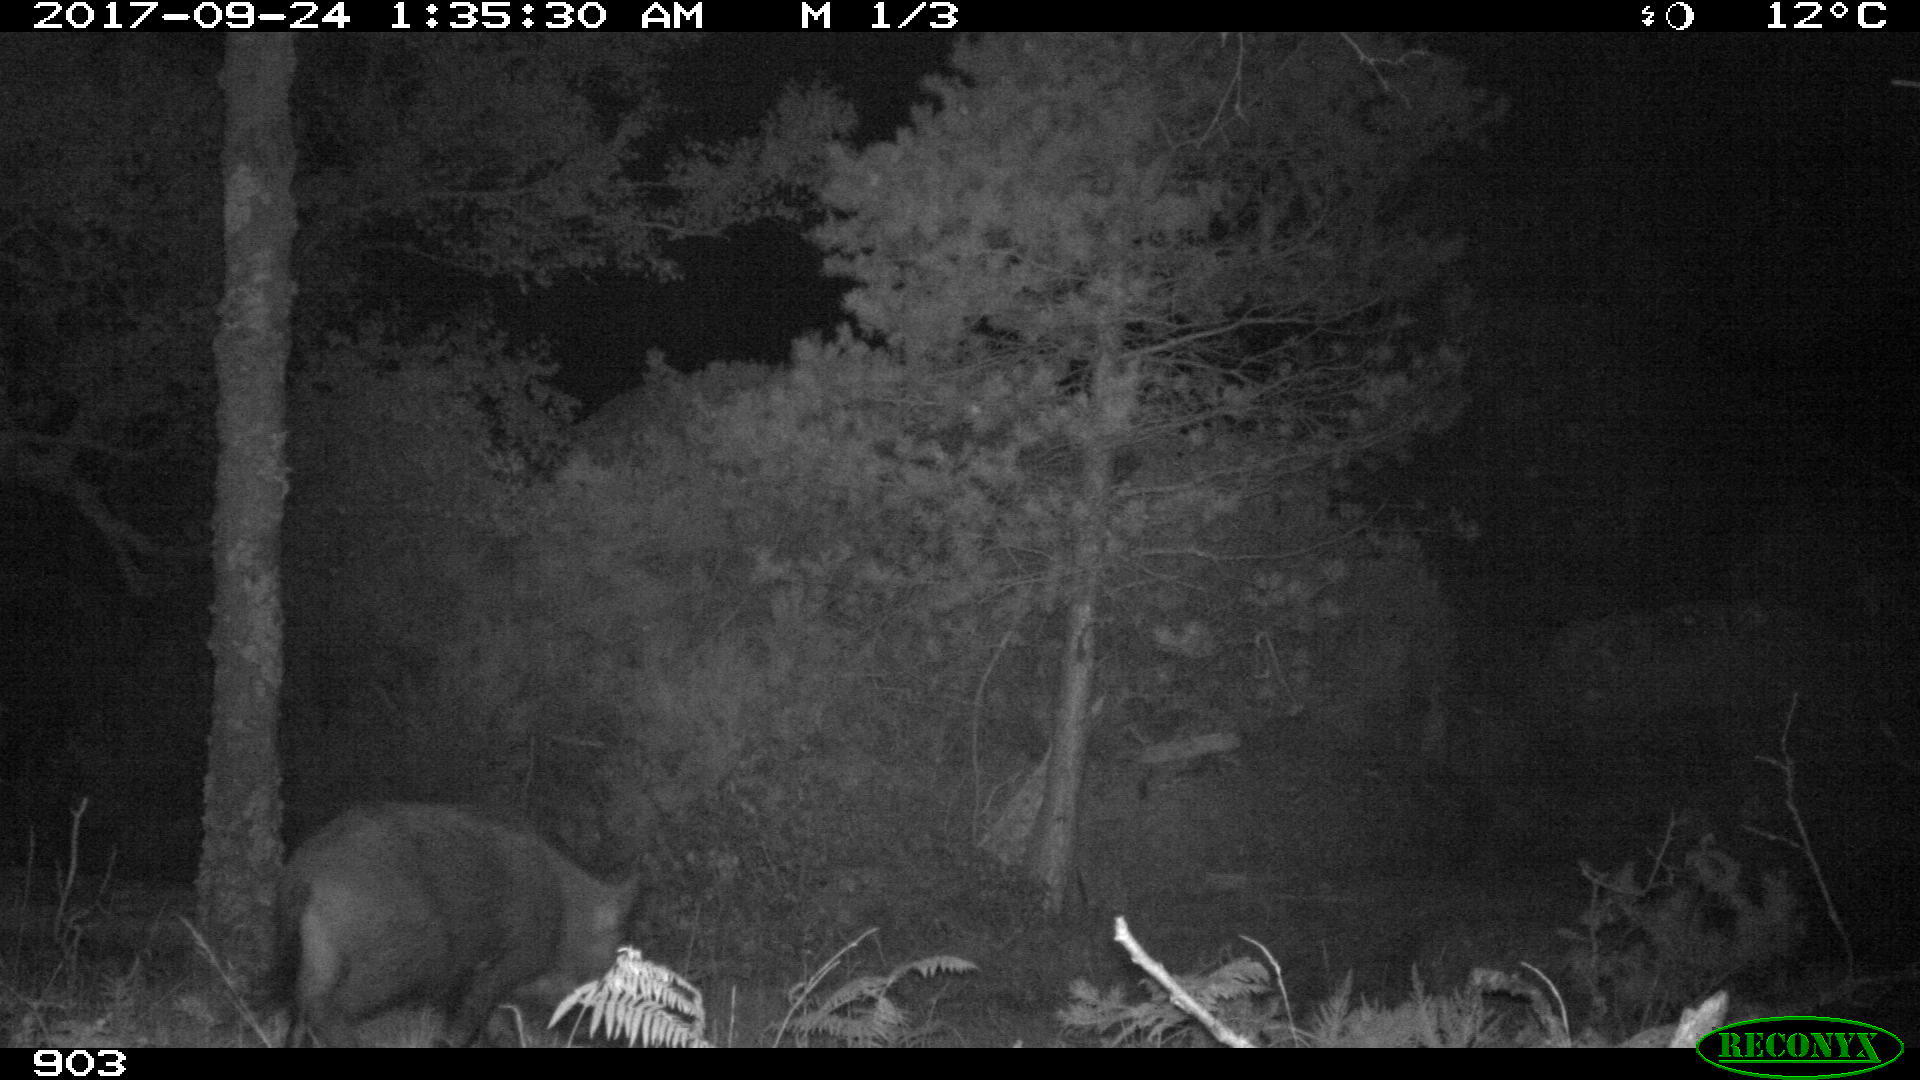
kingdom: Animalia
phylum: Chordata
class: Mammalia
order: Artiodactyla
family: Suidae
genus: Sus
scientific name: Sus scrofa
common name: Wild boar
